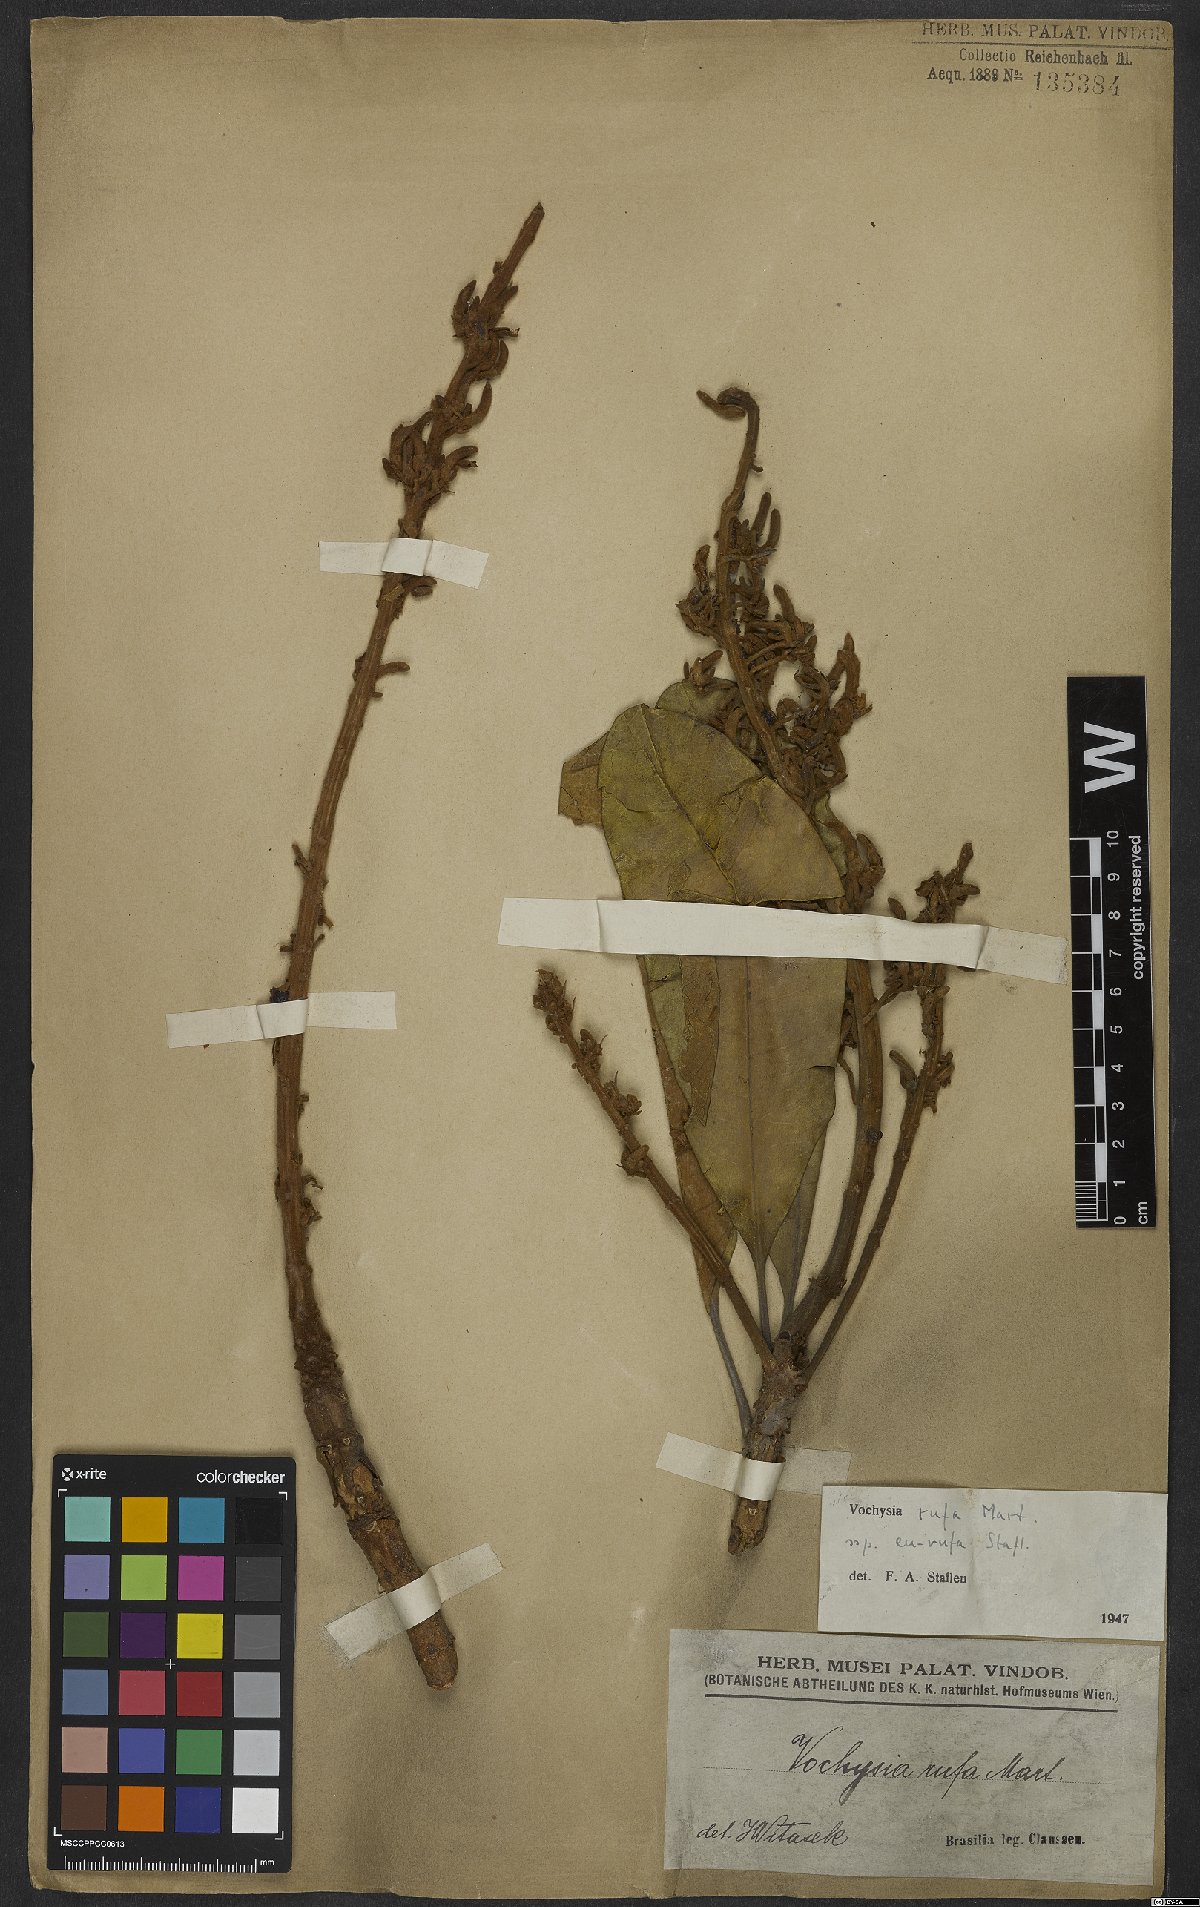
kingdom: Plantae
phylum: Tracheophyta
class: Magnoliopsida
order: Myrtales
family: Vochysiaceae
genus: Vochysia
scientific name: Vochysia rufa
